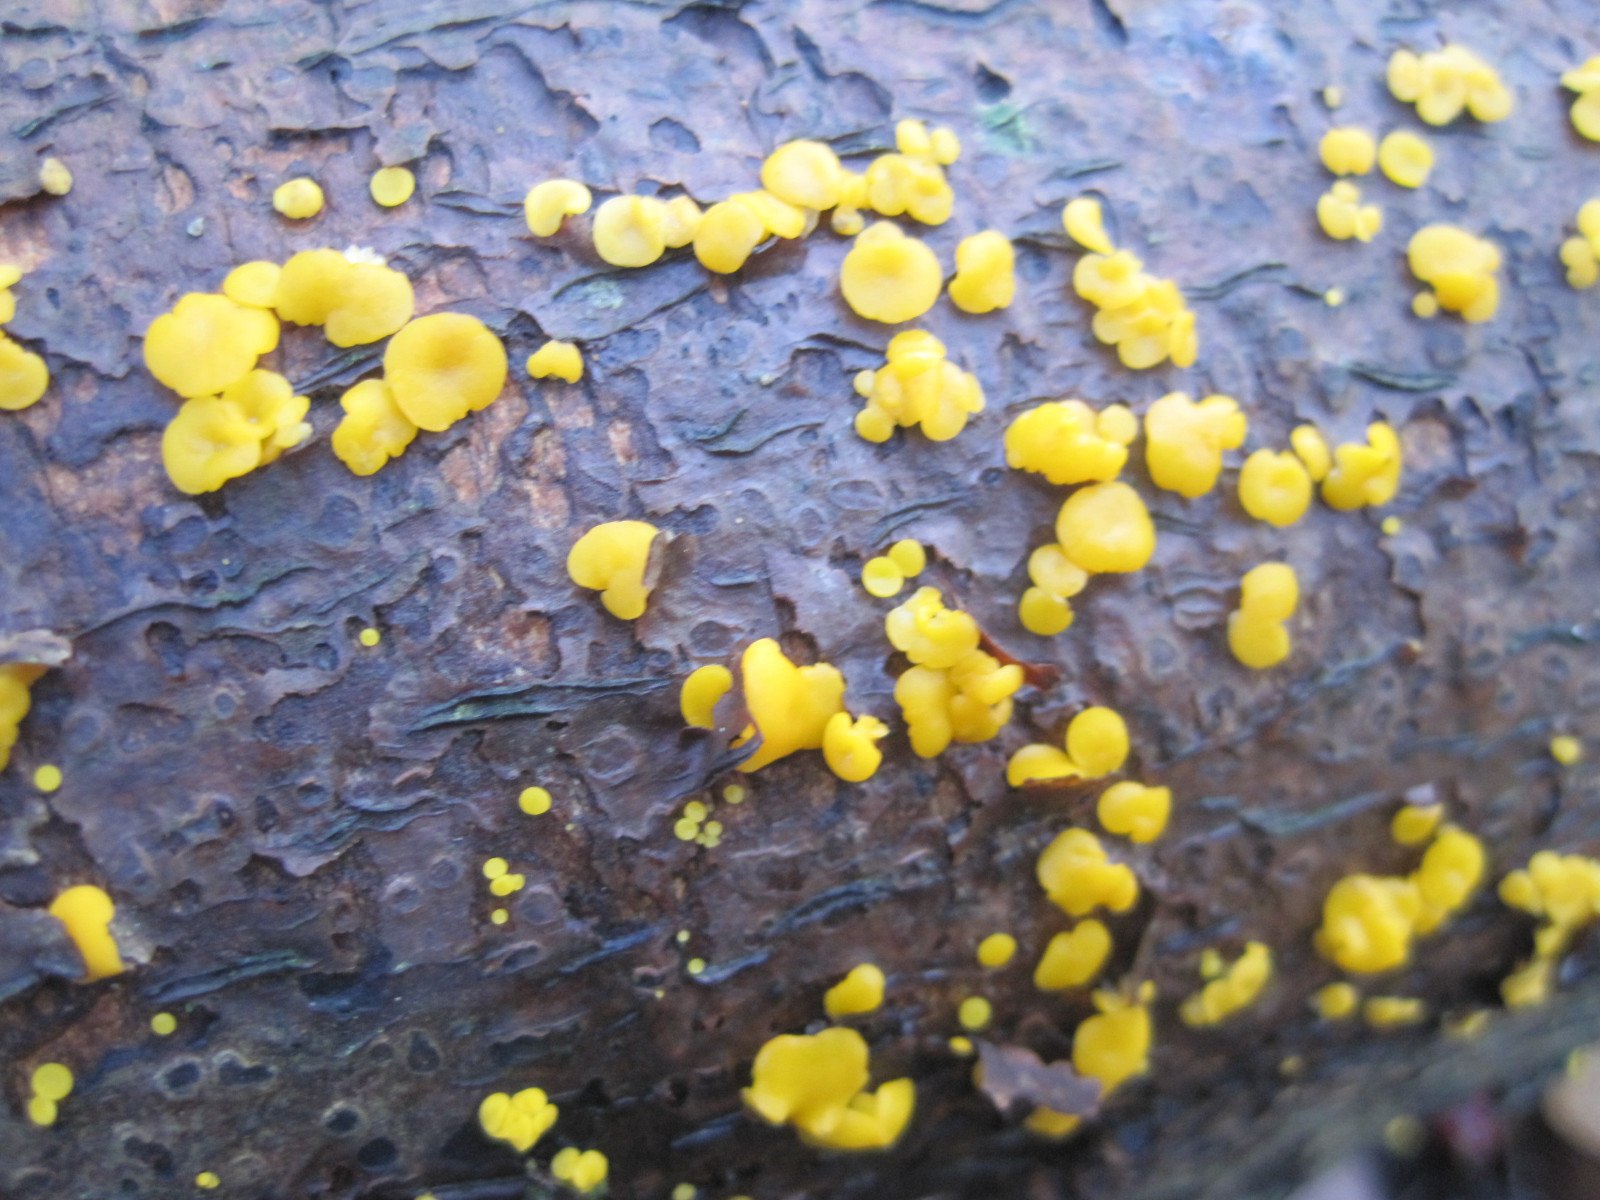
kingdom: Fungi
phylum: Ascomycota
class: Leotiomycetes
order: Helotiales
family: Pezizellaceae
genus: Calycina
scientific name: Calycina citrina
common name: almindelig gulskive
